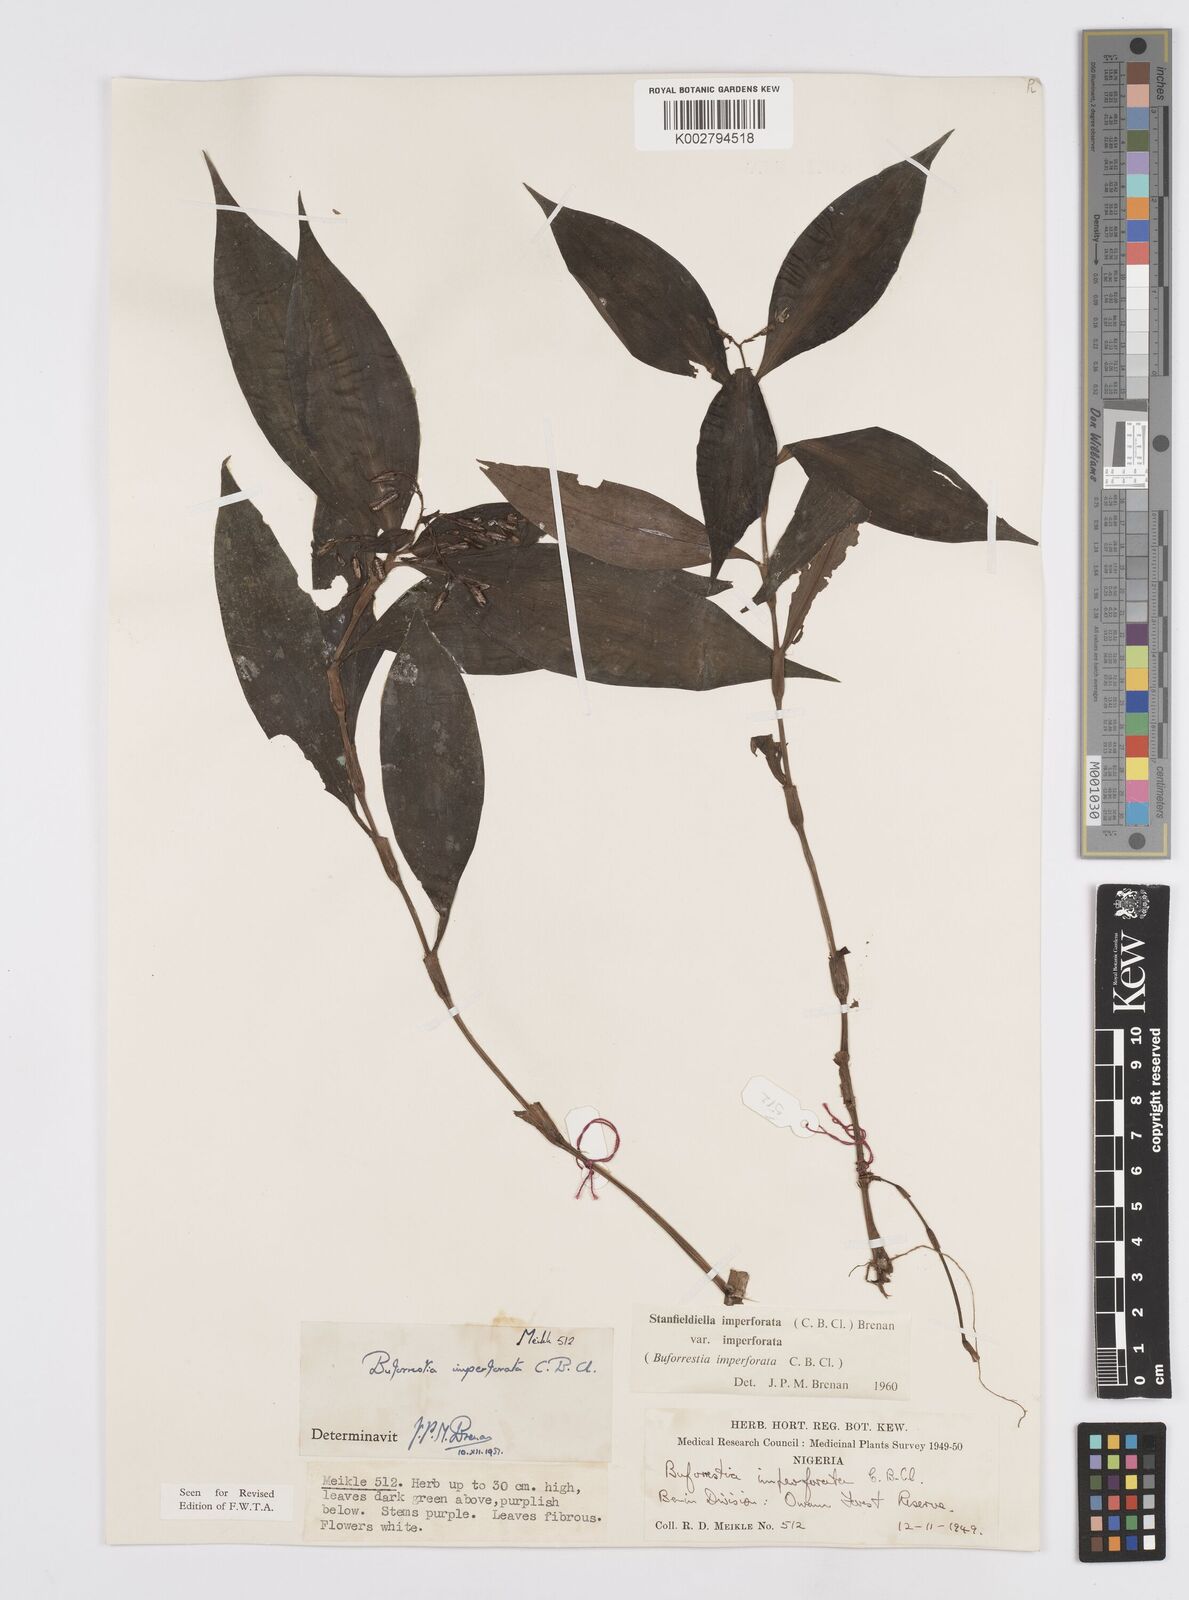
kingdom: Plantae
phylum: Tracheophyta
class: Liliopsida
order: Commelinales
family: Commelinaceae
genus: Stanfieldiella
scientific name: Stanfieldiella imperforata
